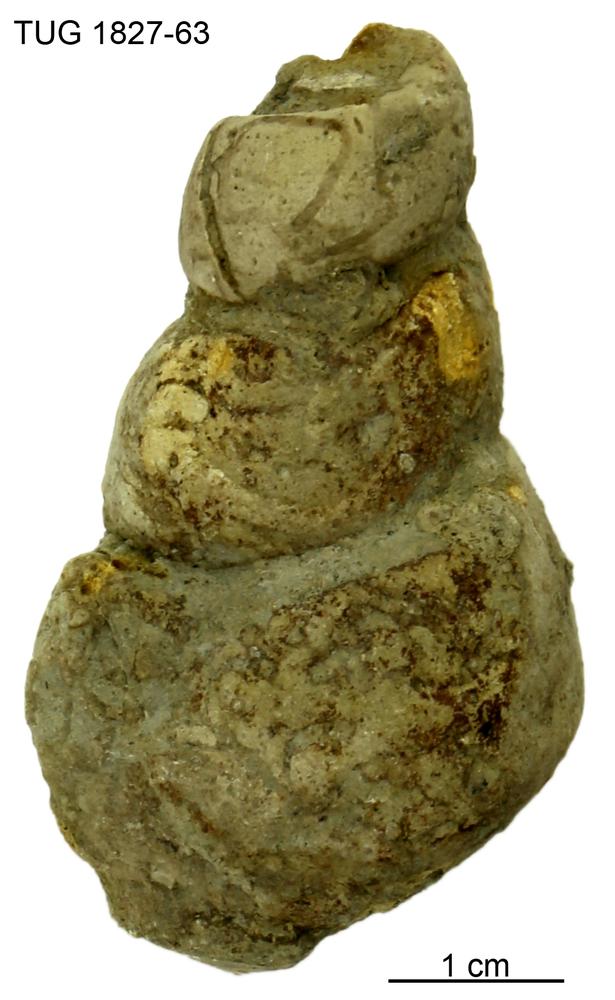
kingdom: Animalia
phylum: Mollusca
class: Gastropoda
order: Pleurotomariida
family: Murchisoniidae
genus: Hormotoma
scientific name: Hormotoma
